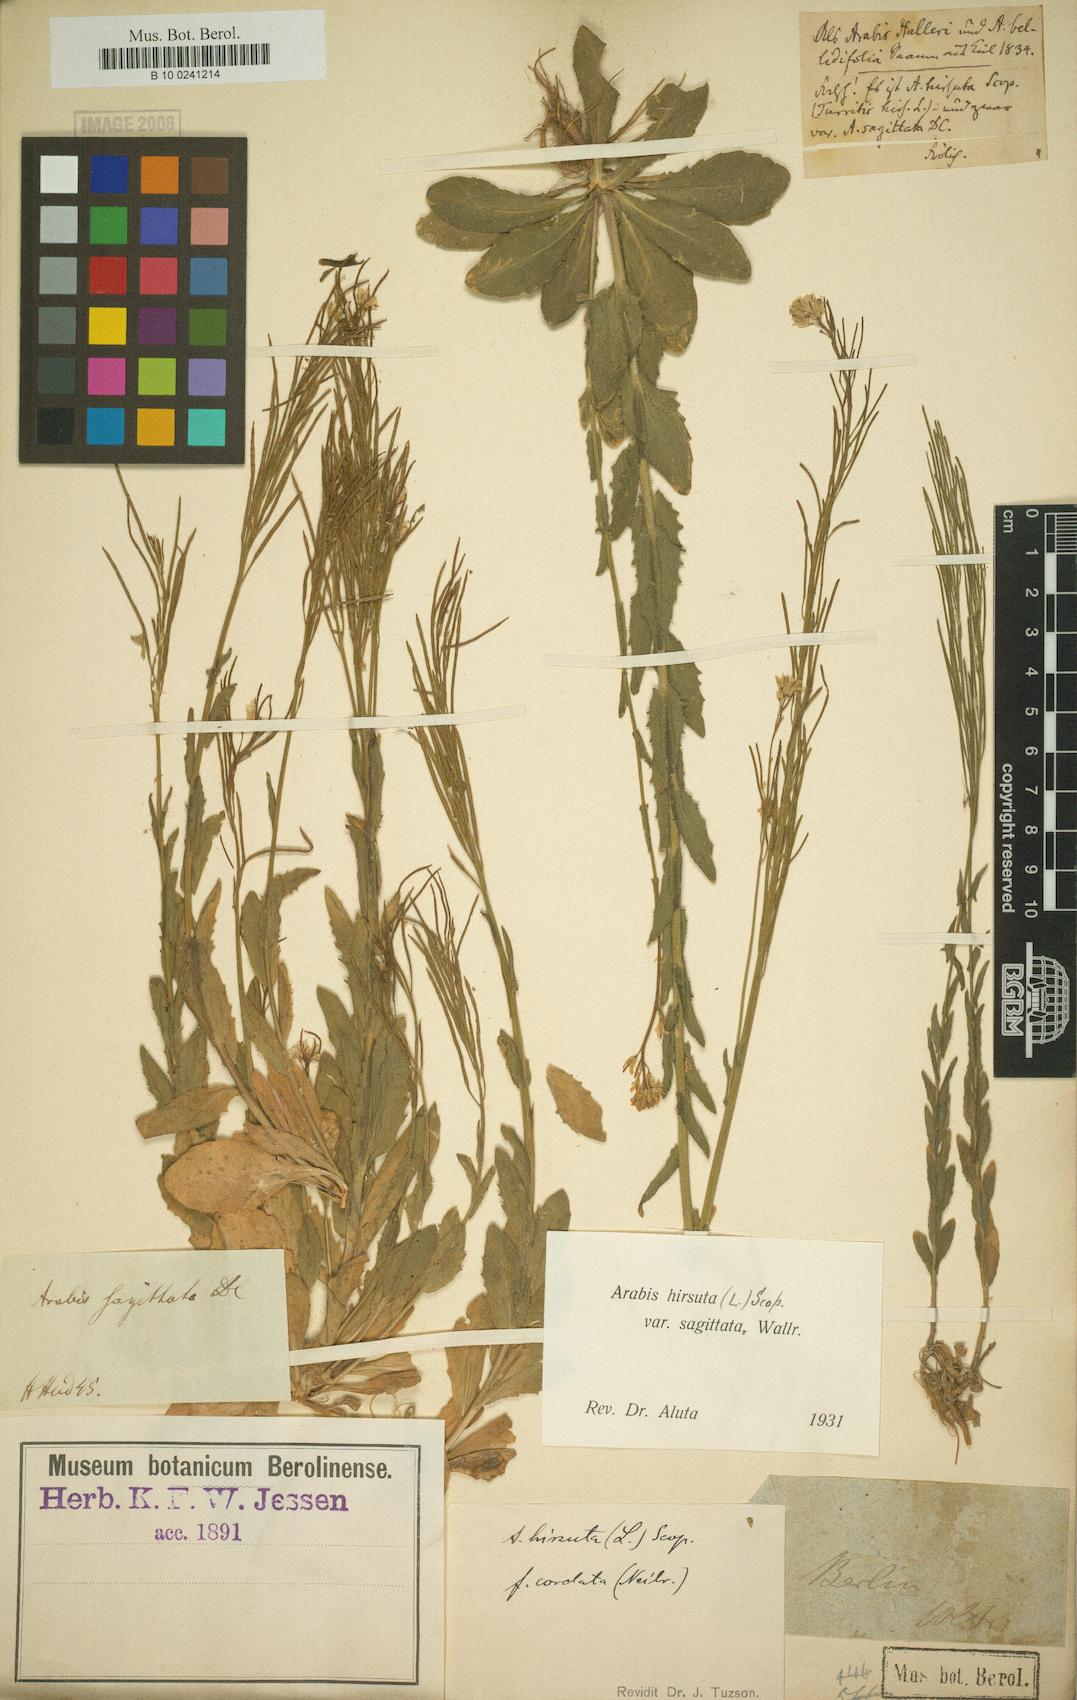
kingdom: Plantae
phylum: Tracheophyta
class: Magnoliopsida
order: Brassicales
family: Brassicaceae
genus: Arabis
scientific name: Arabis sagittata
